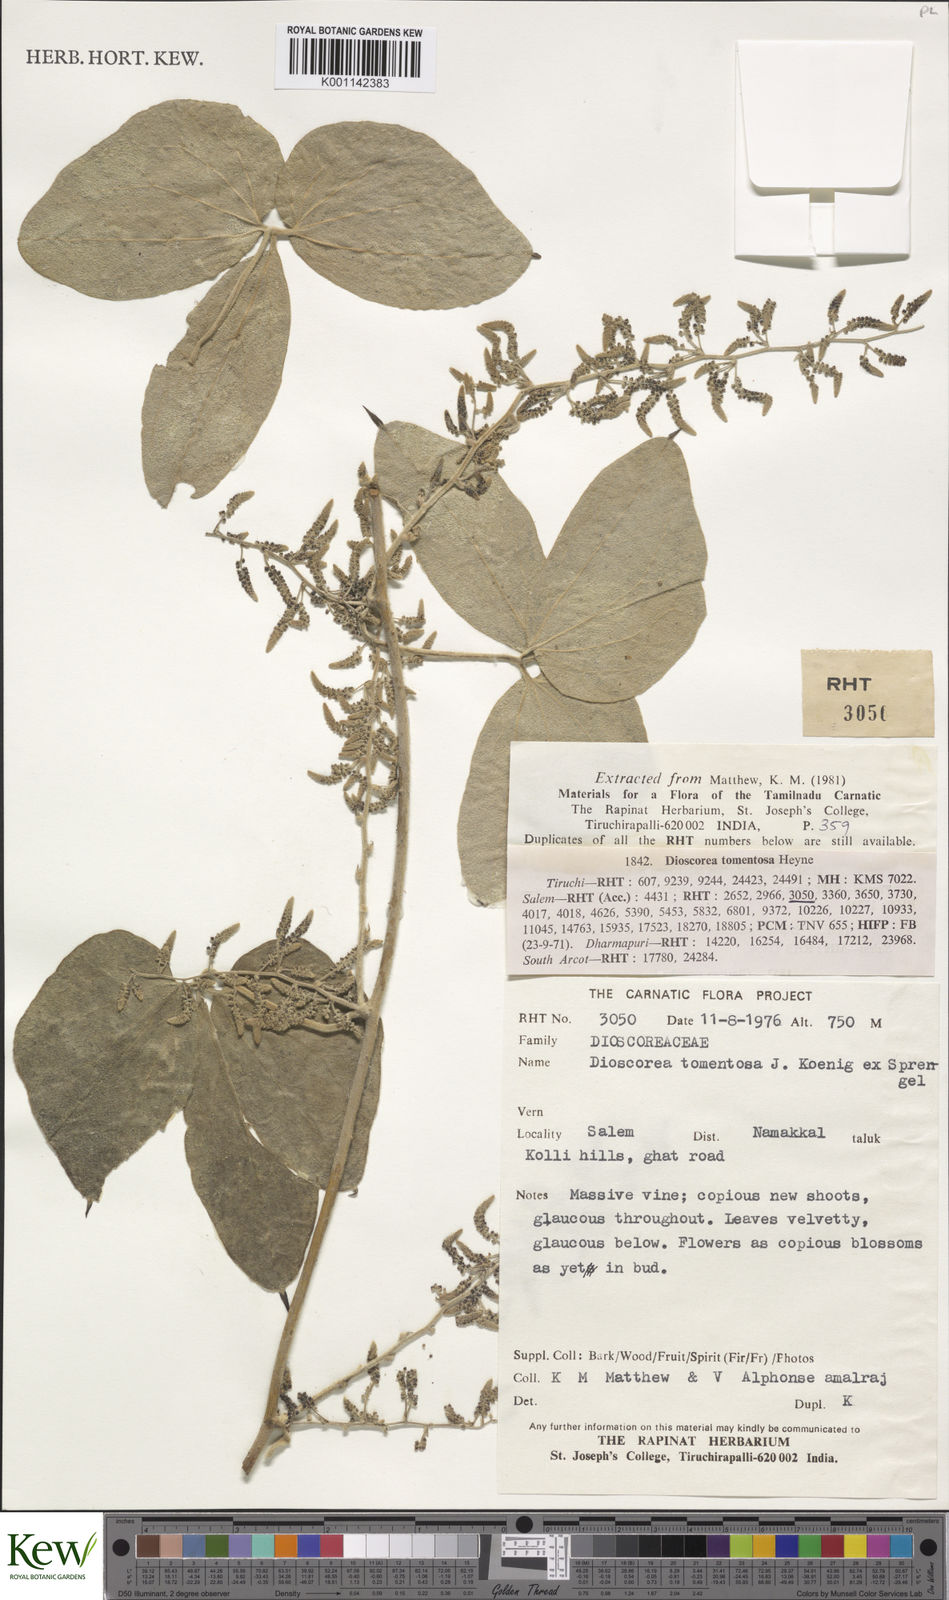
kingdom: Plantae
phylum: Tracheophyta
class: Liliopsida
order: Dioscoreales
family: Dioscoreaceae
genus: Dioscorea
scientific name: Dioscorea
